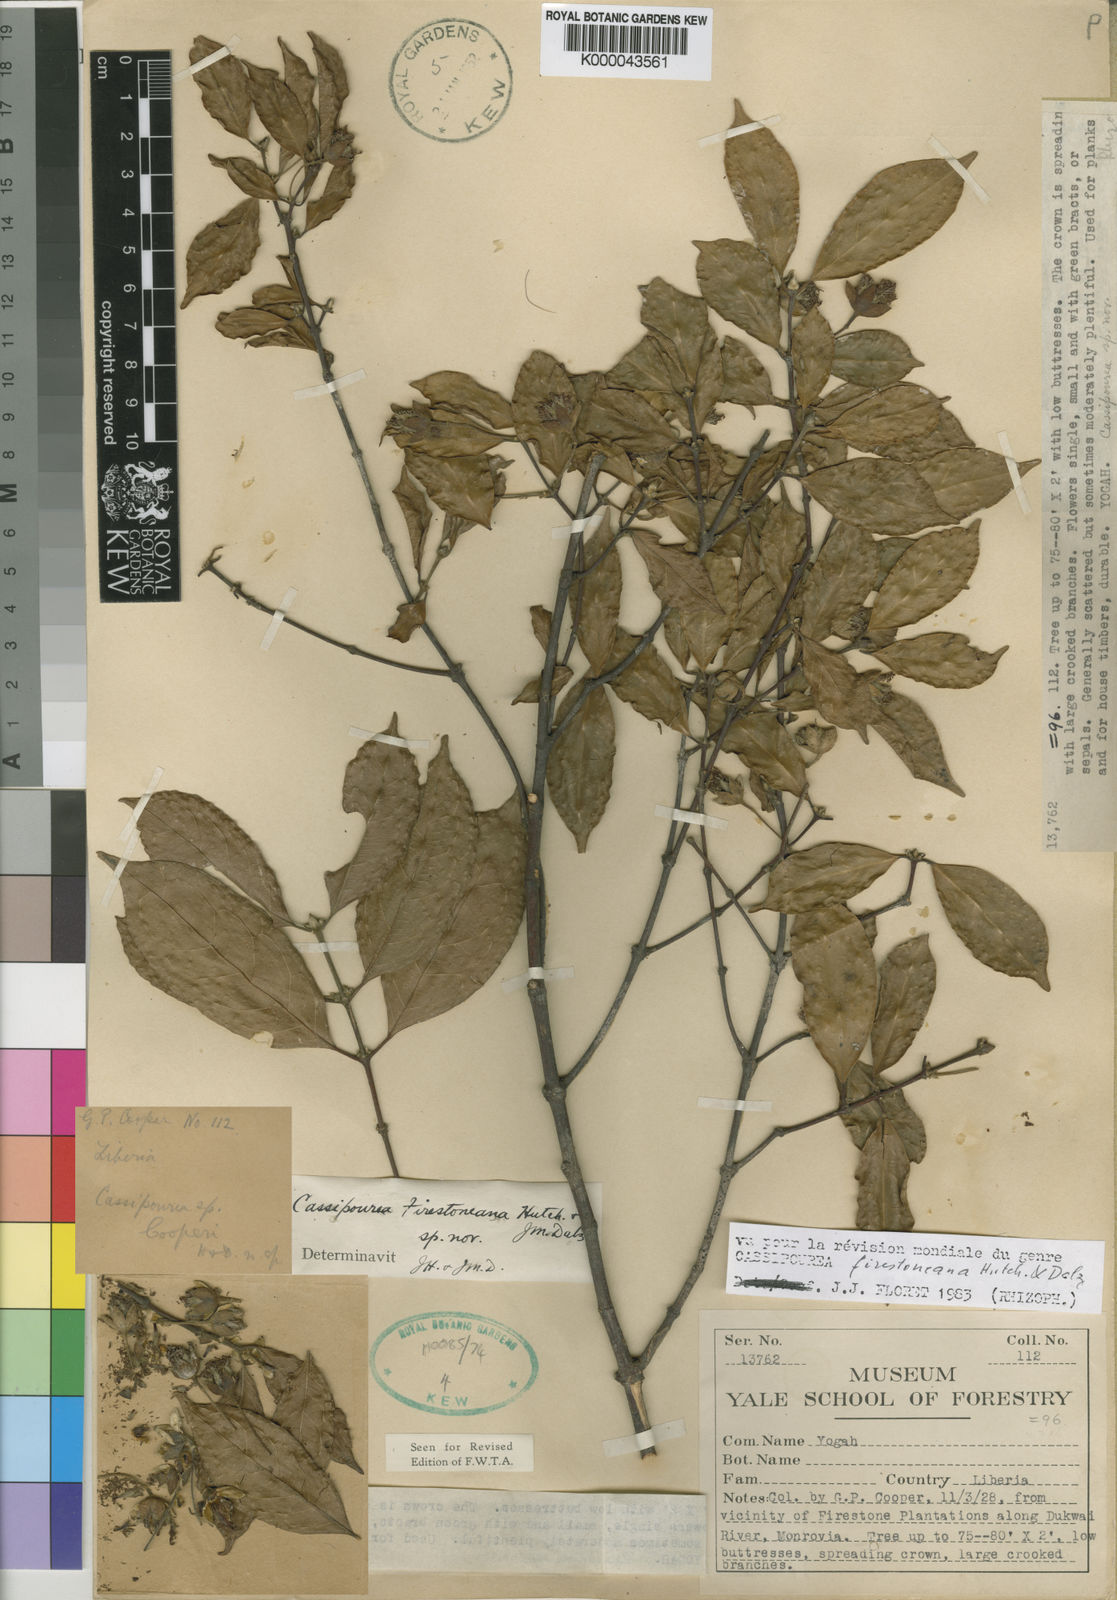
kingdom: Plantae
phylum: Tracheophyta
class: Magnoliopsida
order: Malpighiales
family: Rhizophoraceae
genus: Cassipourea
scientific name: Cassipourea
